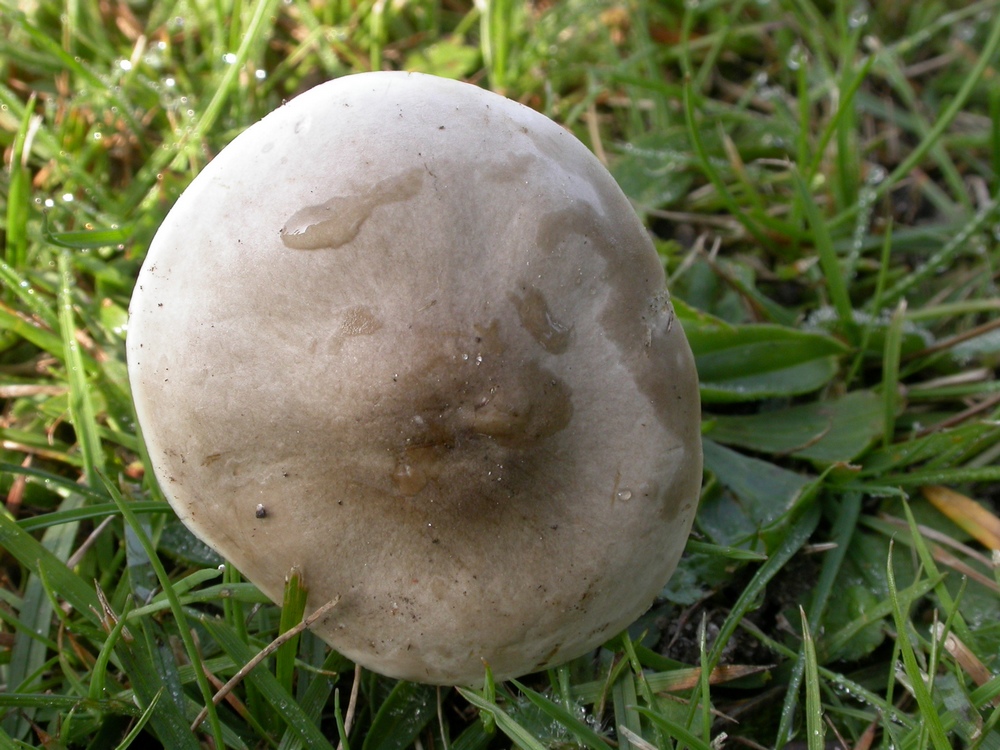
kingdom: Fungi
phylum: Basidiomycota
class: Agaricomycetes
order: Agaricales
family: Tricholomataceae
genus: Melanoleuca
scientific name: Melanoleuca polioleuca
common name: hvidbladet munkehat
